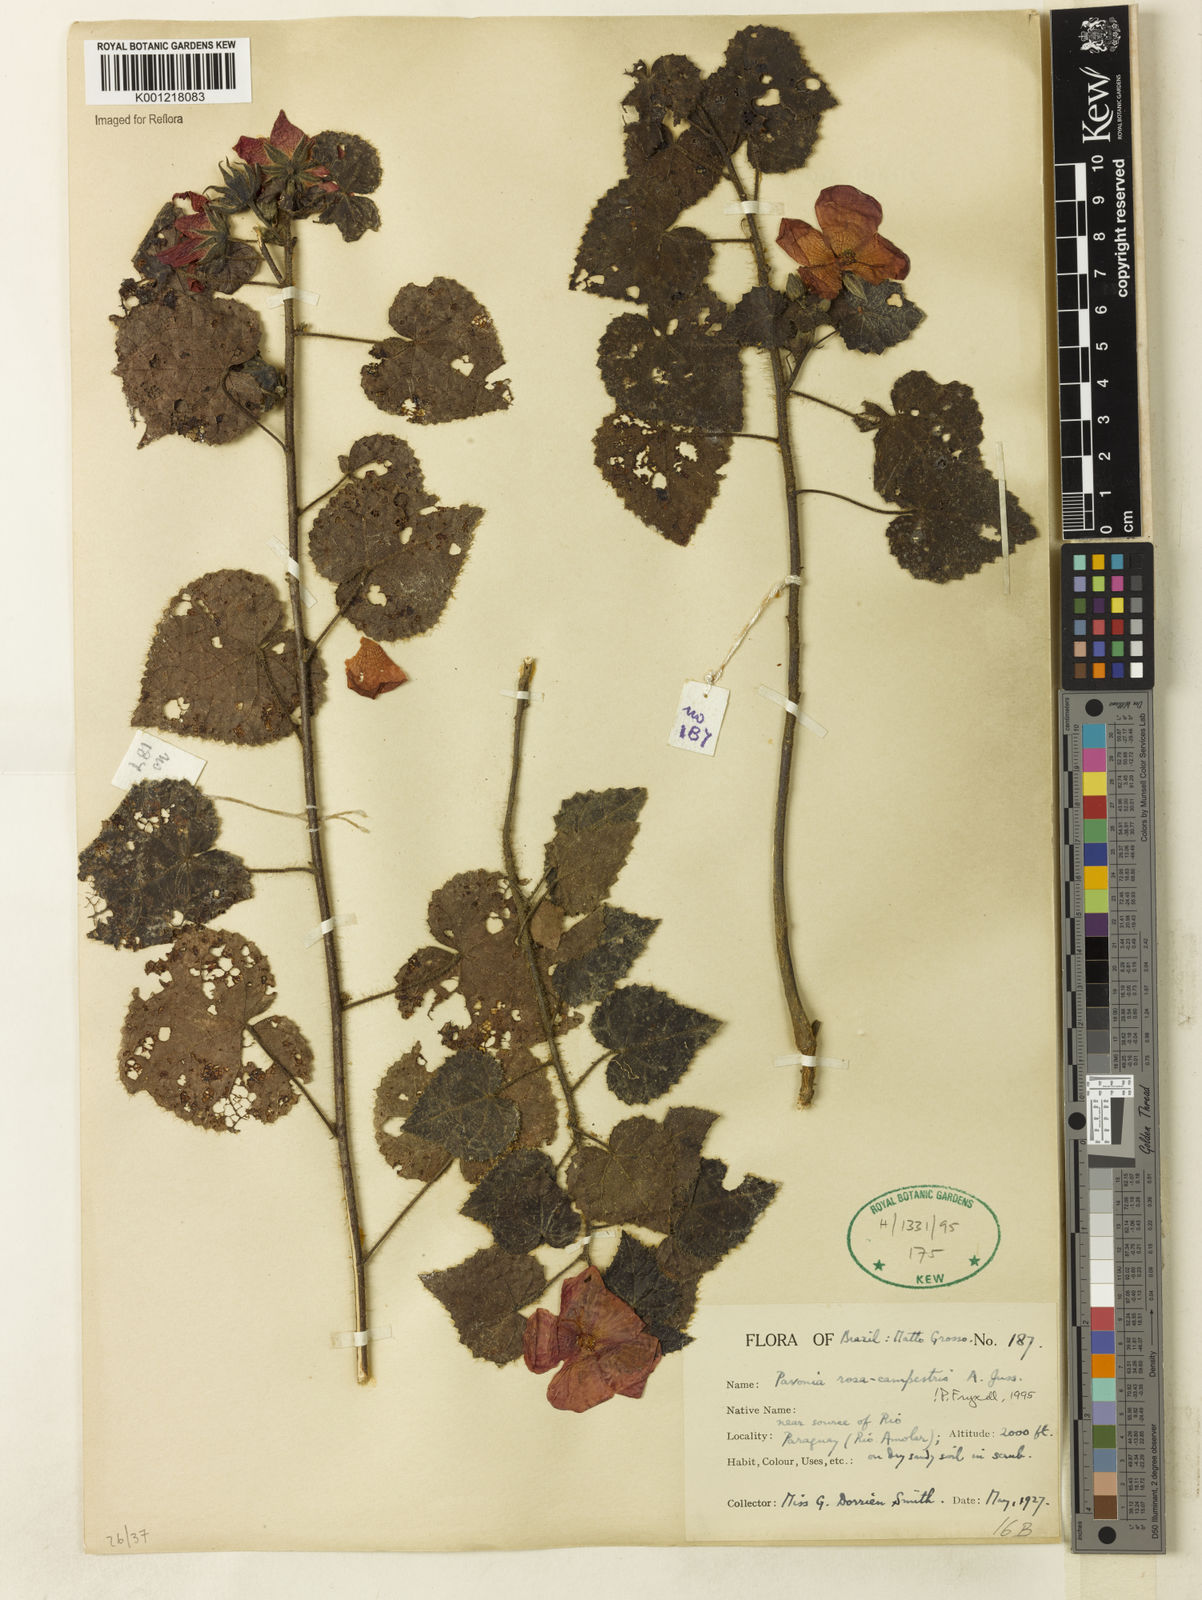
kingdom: Plantae
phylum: Tracheophyta
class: Magnoliopsida
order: Malvales
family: Malvaceae
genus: Pavonia
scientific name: Pavonia rosa-campestris
